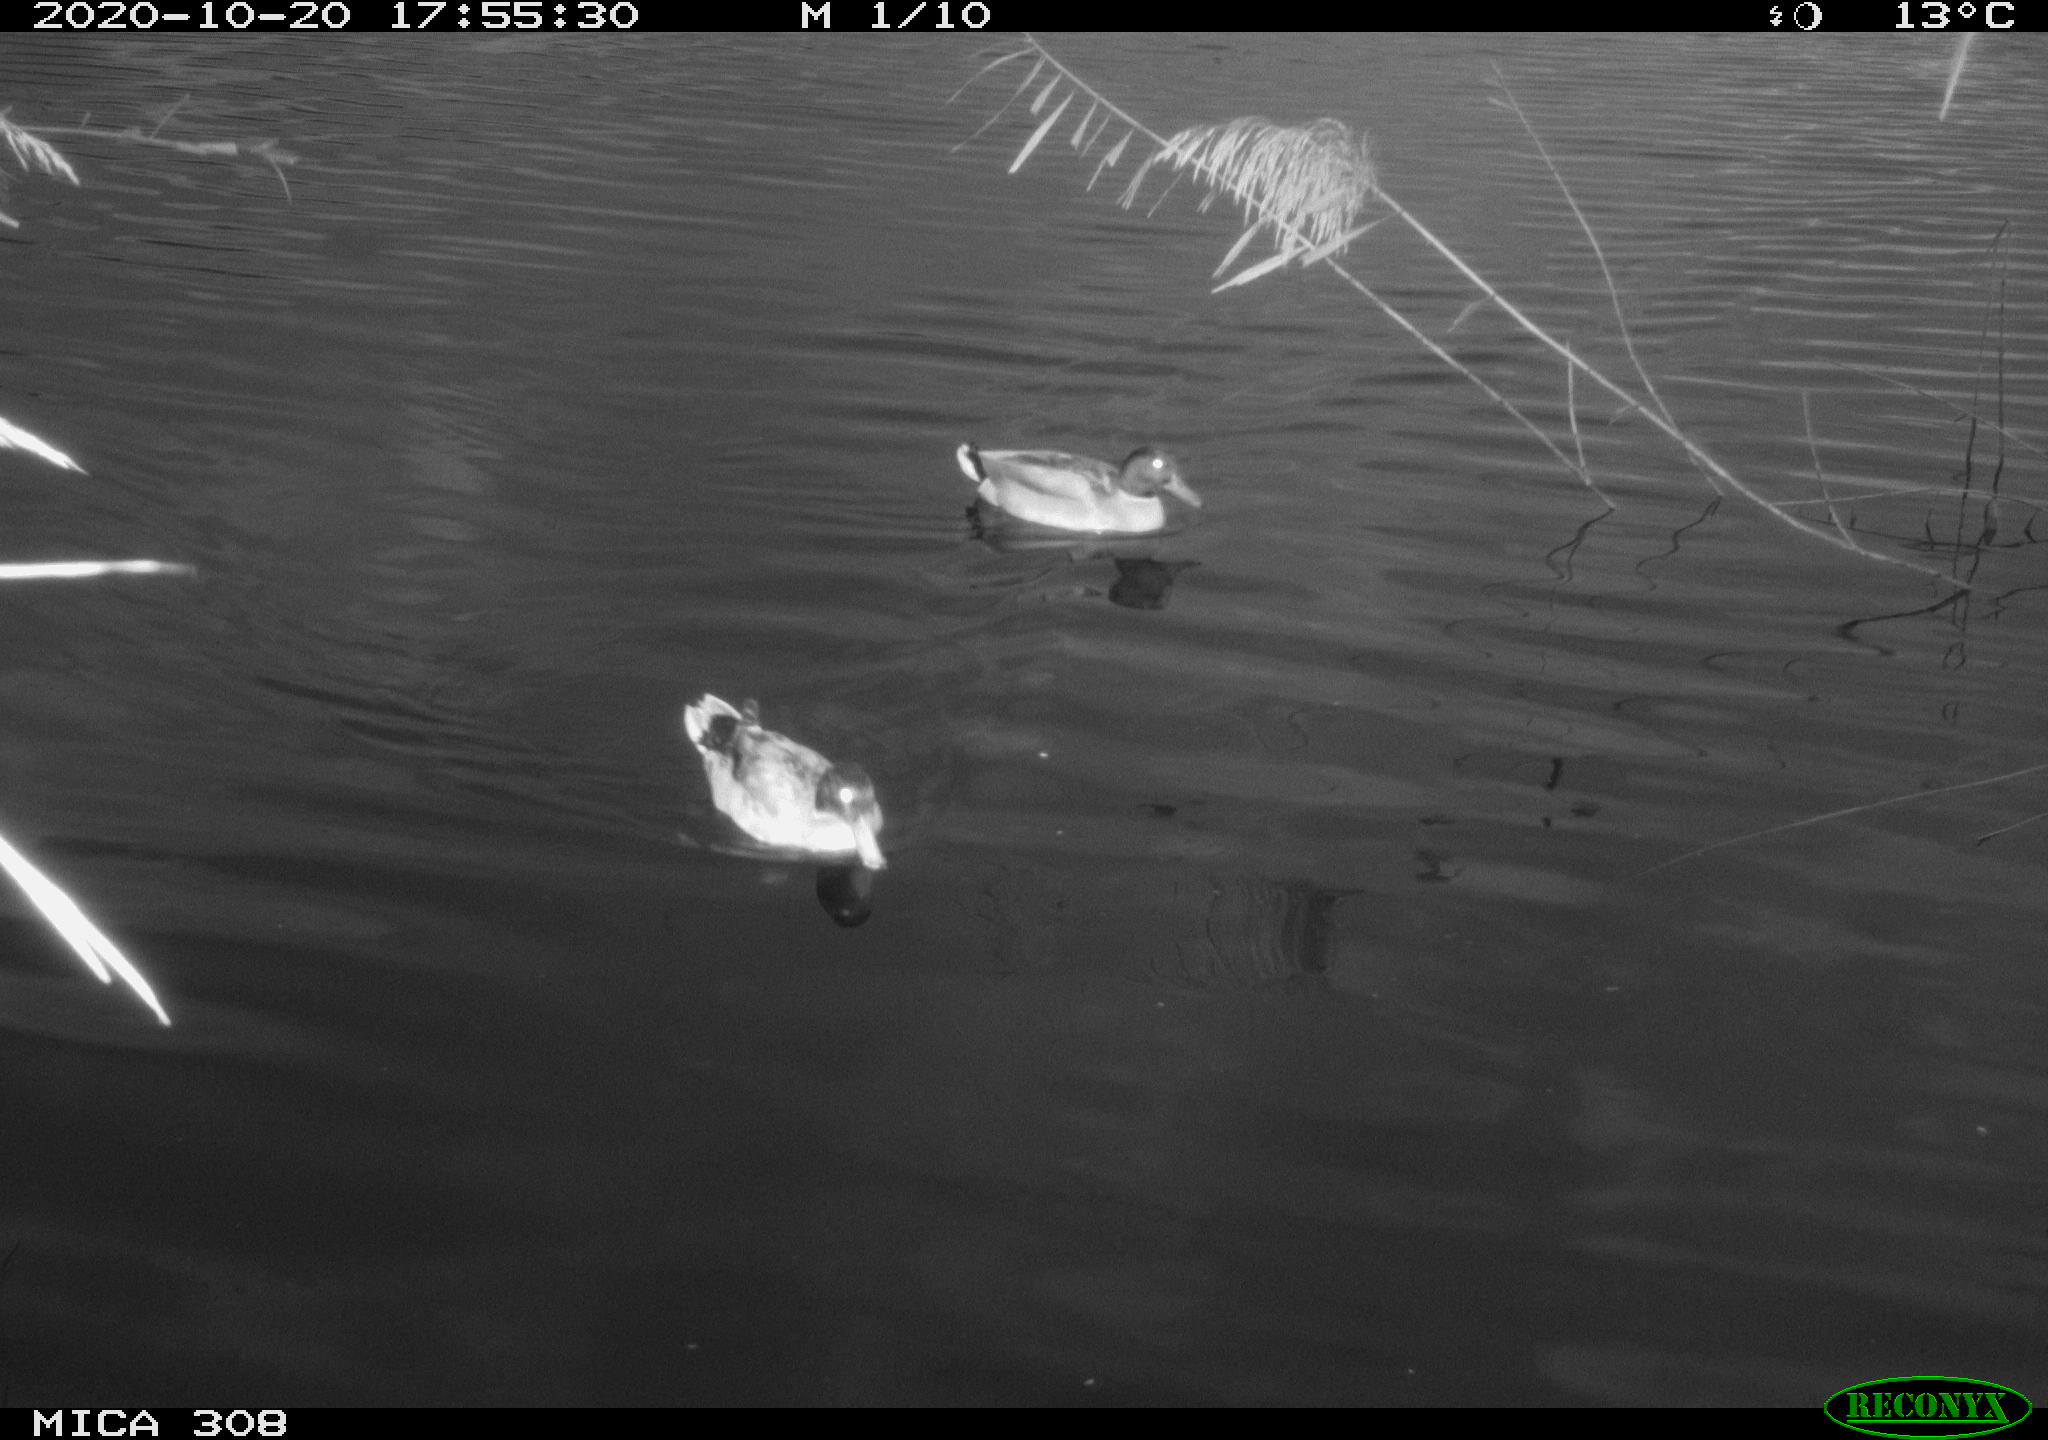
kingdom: Animalia
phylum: Chordata
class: Aves
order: Anseriformes
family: Anatidae
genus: Anas
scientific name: Anas platyrhynchos
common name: Mallard
